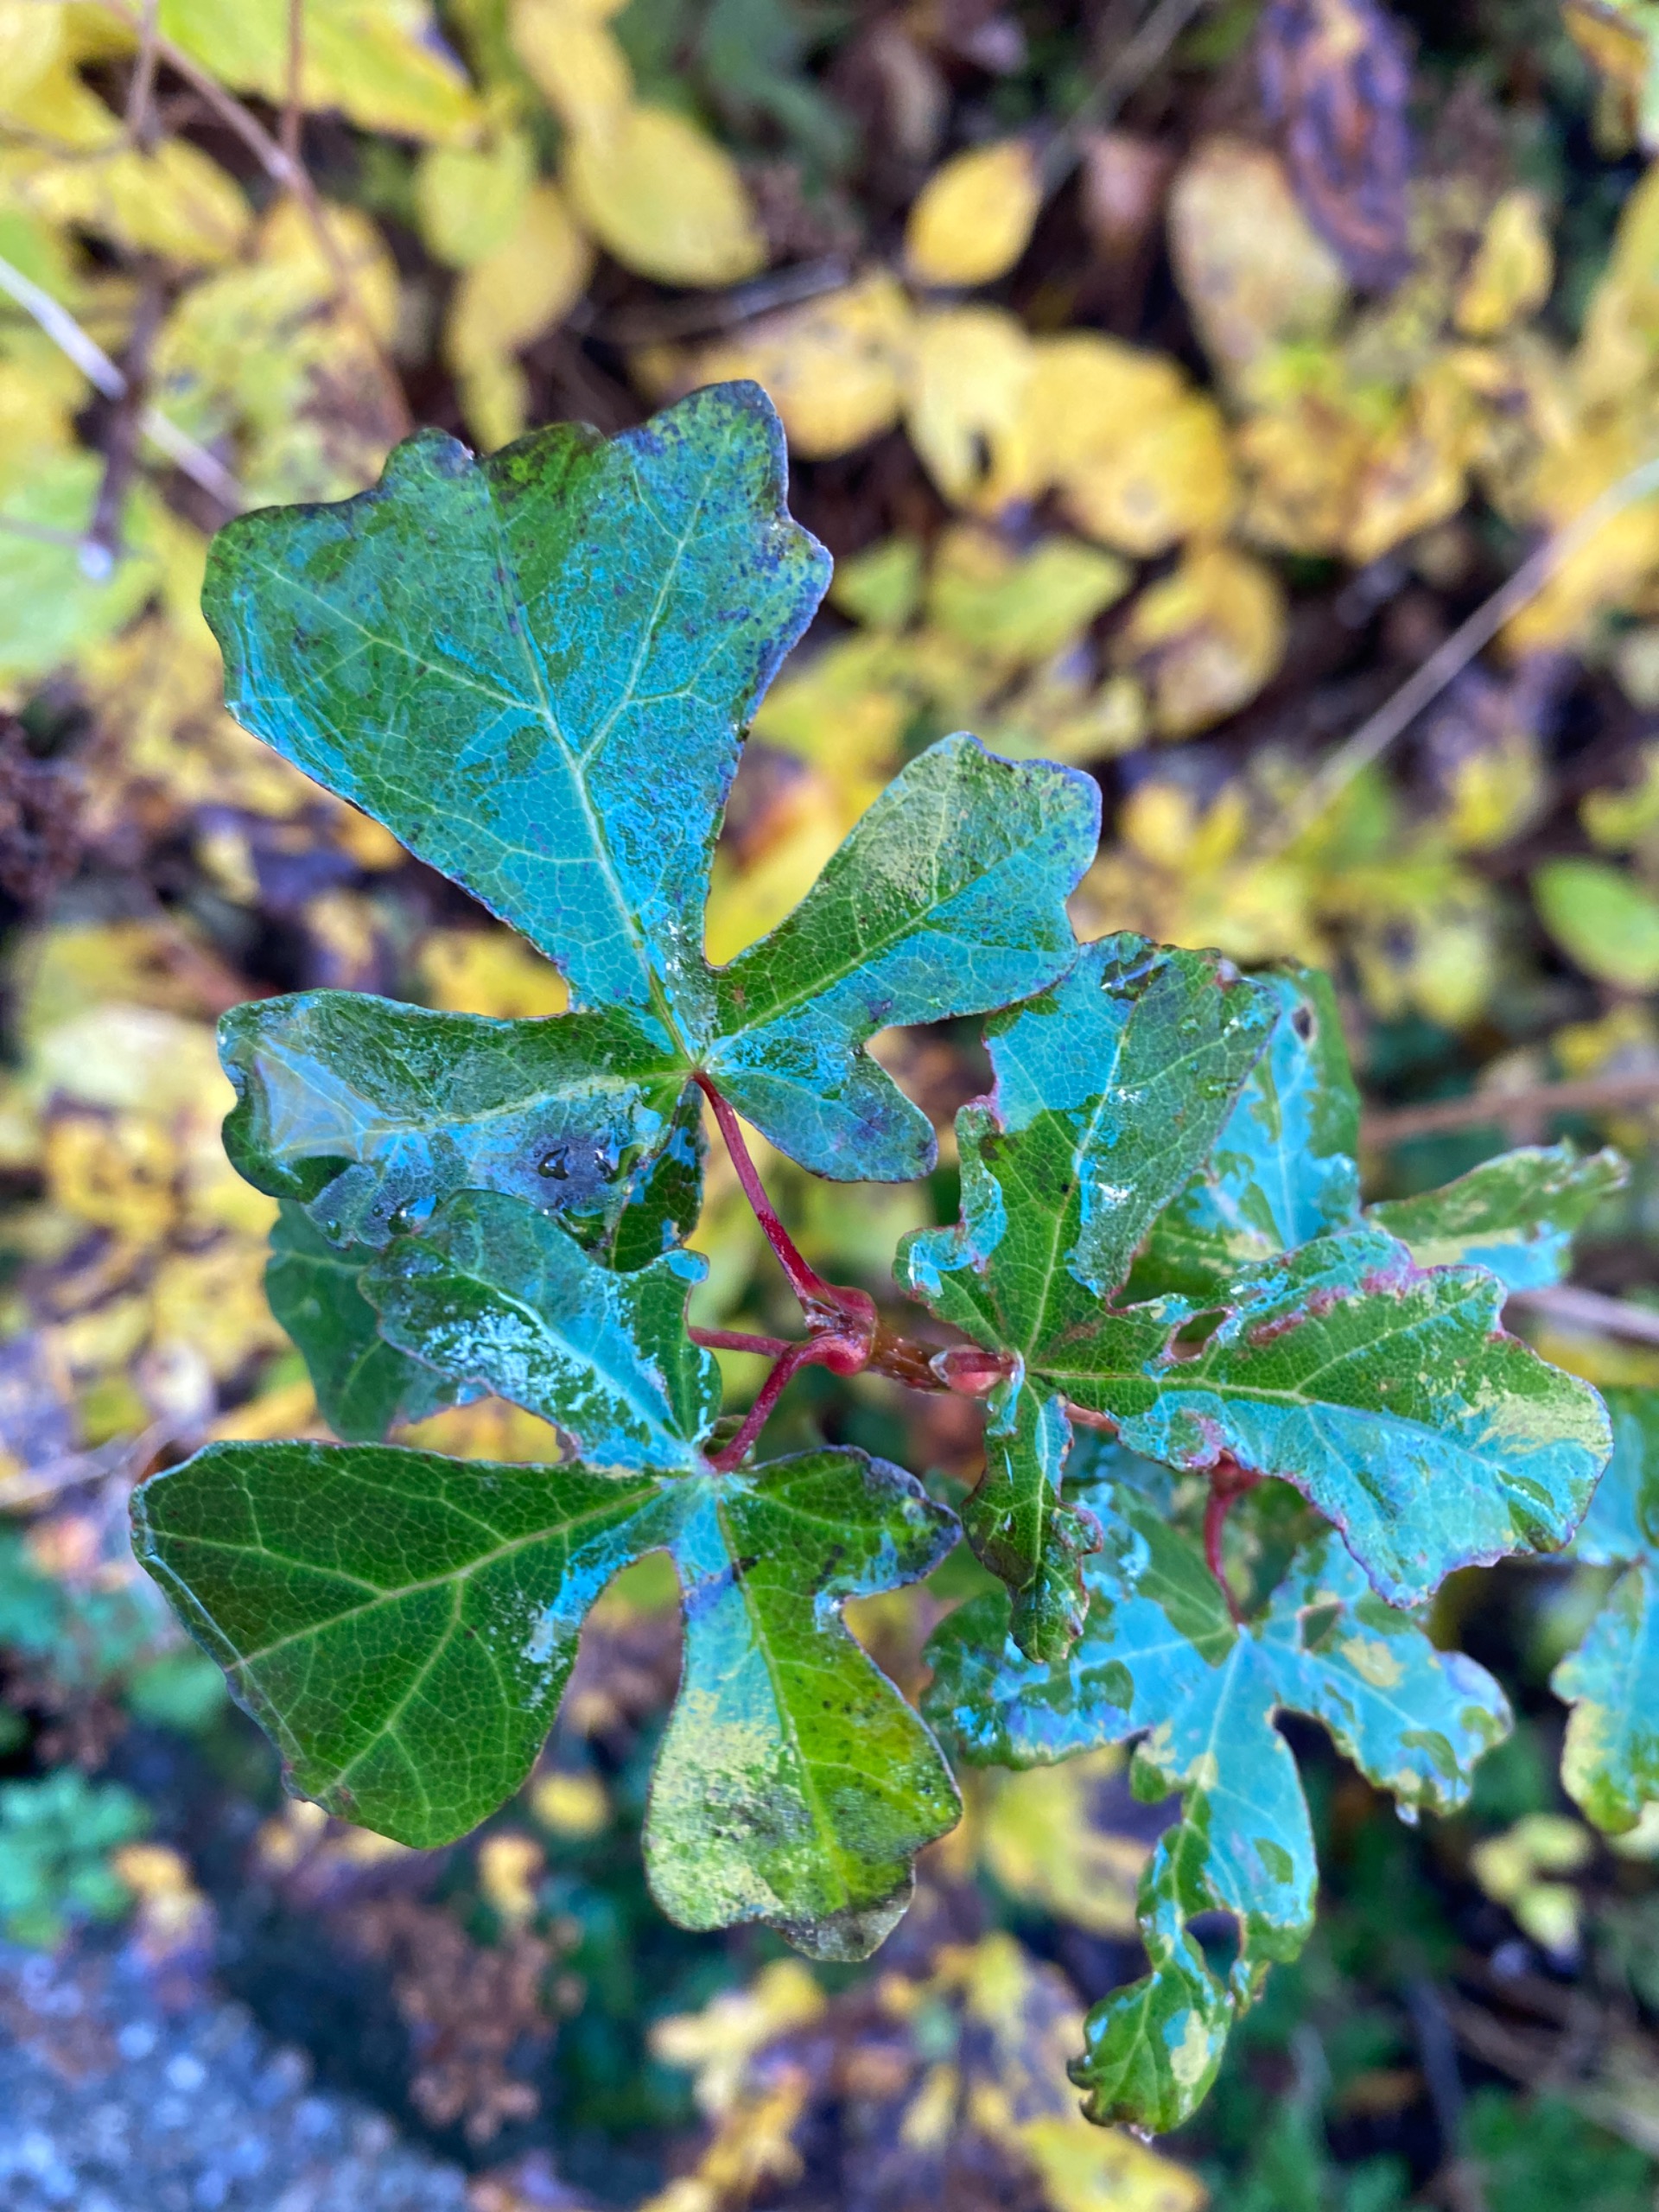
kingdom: Plantae
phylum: Tracheophyta
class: Magnoliopsida
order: Sapindales
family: Sapindaceae
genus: Acer
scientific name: Acer campestre
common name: Navr
